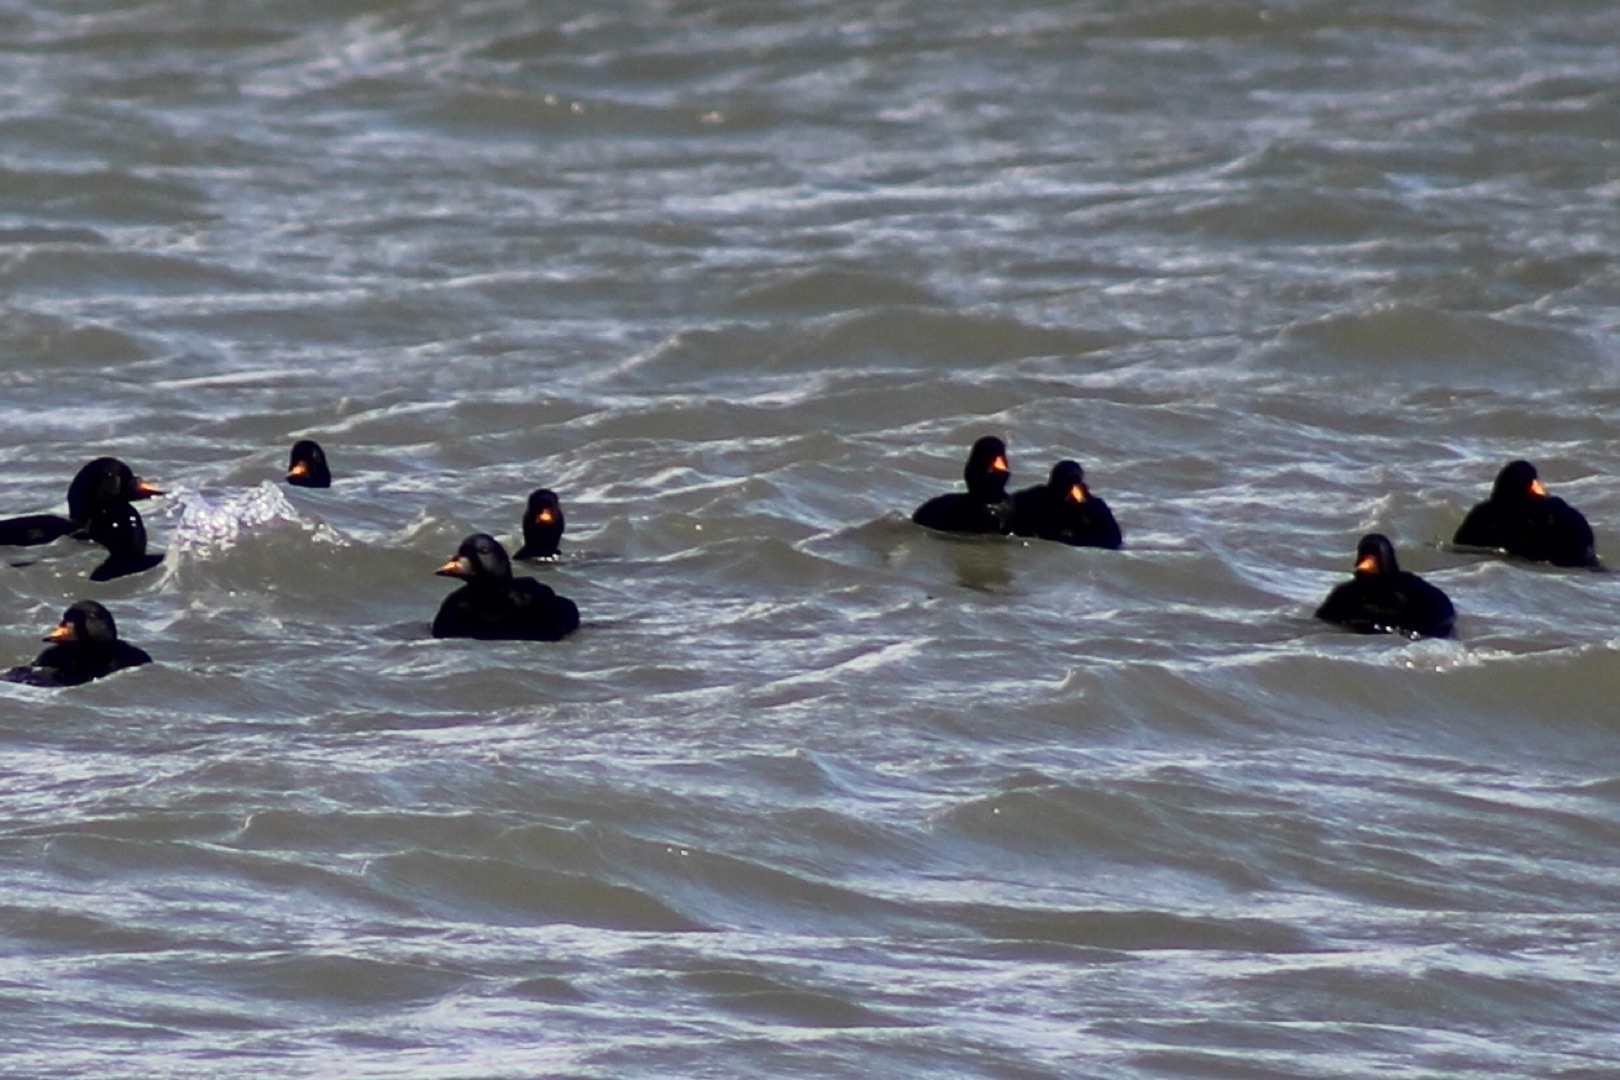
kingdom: Animalia
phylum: Chordata
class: Aves
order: Anseriformes
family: Anatidae
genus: Melanitta
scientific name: Melanitta nigra
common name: Sortand
